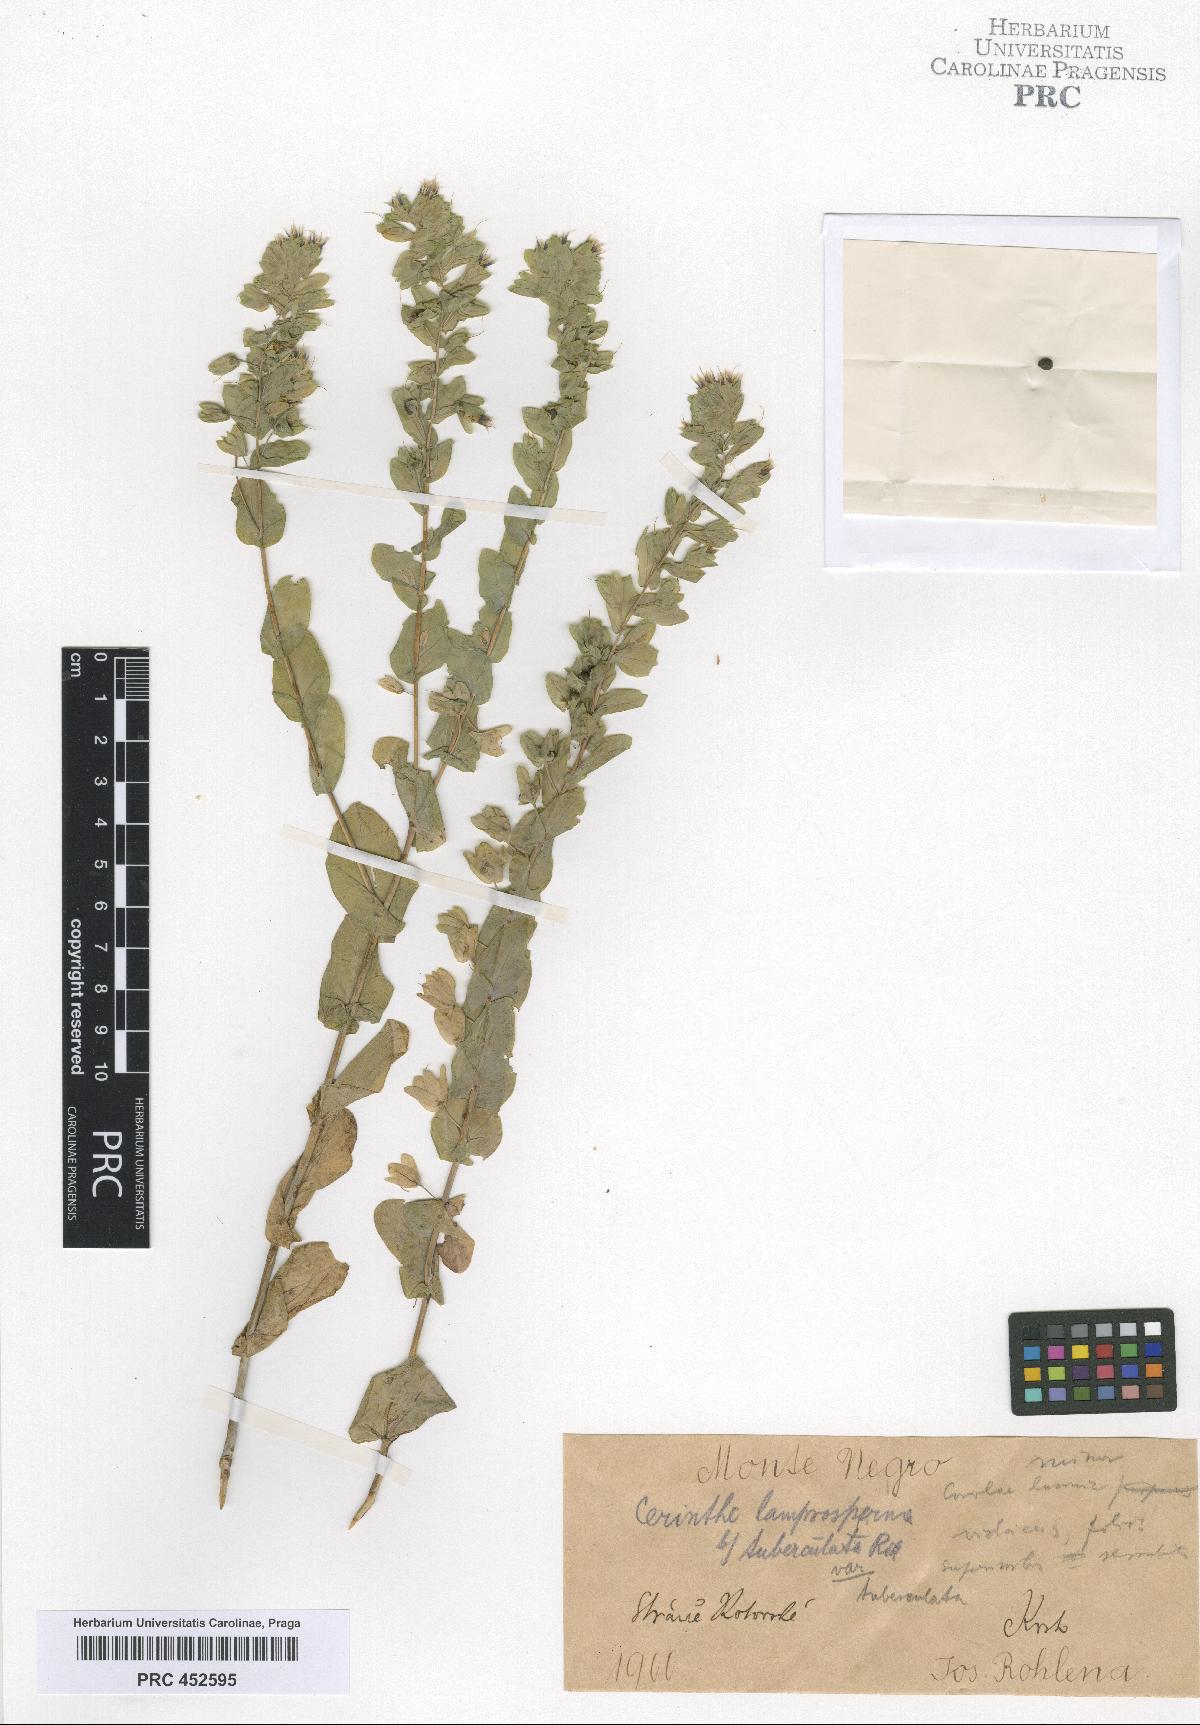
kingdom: Plantae
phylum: Tracheophyta
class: Magnoliopsida
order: Boraginales
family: Boraginaceae
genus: Cerinthe
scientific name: Cerinthe minor
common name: Lesser honeywort
